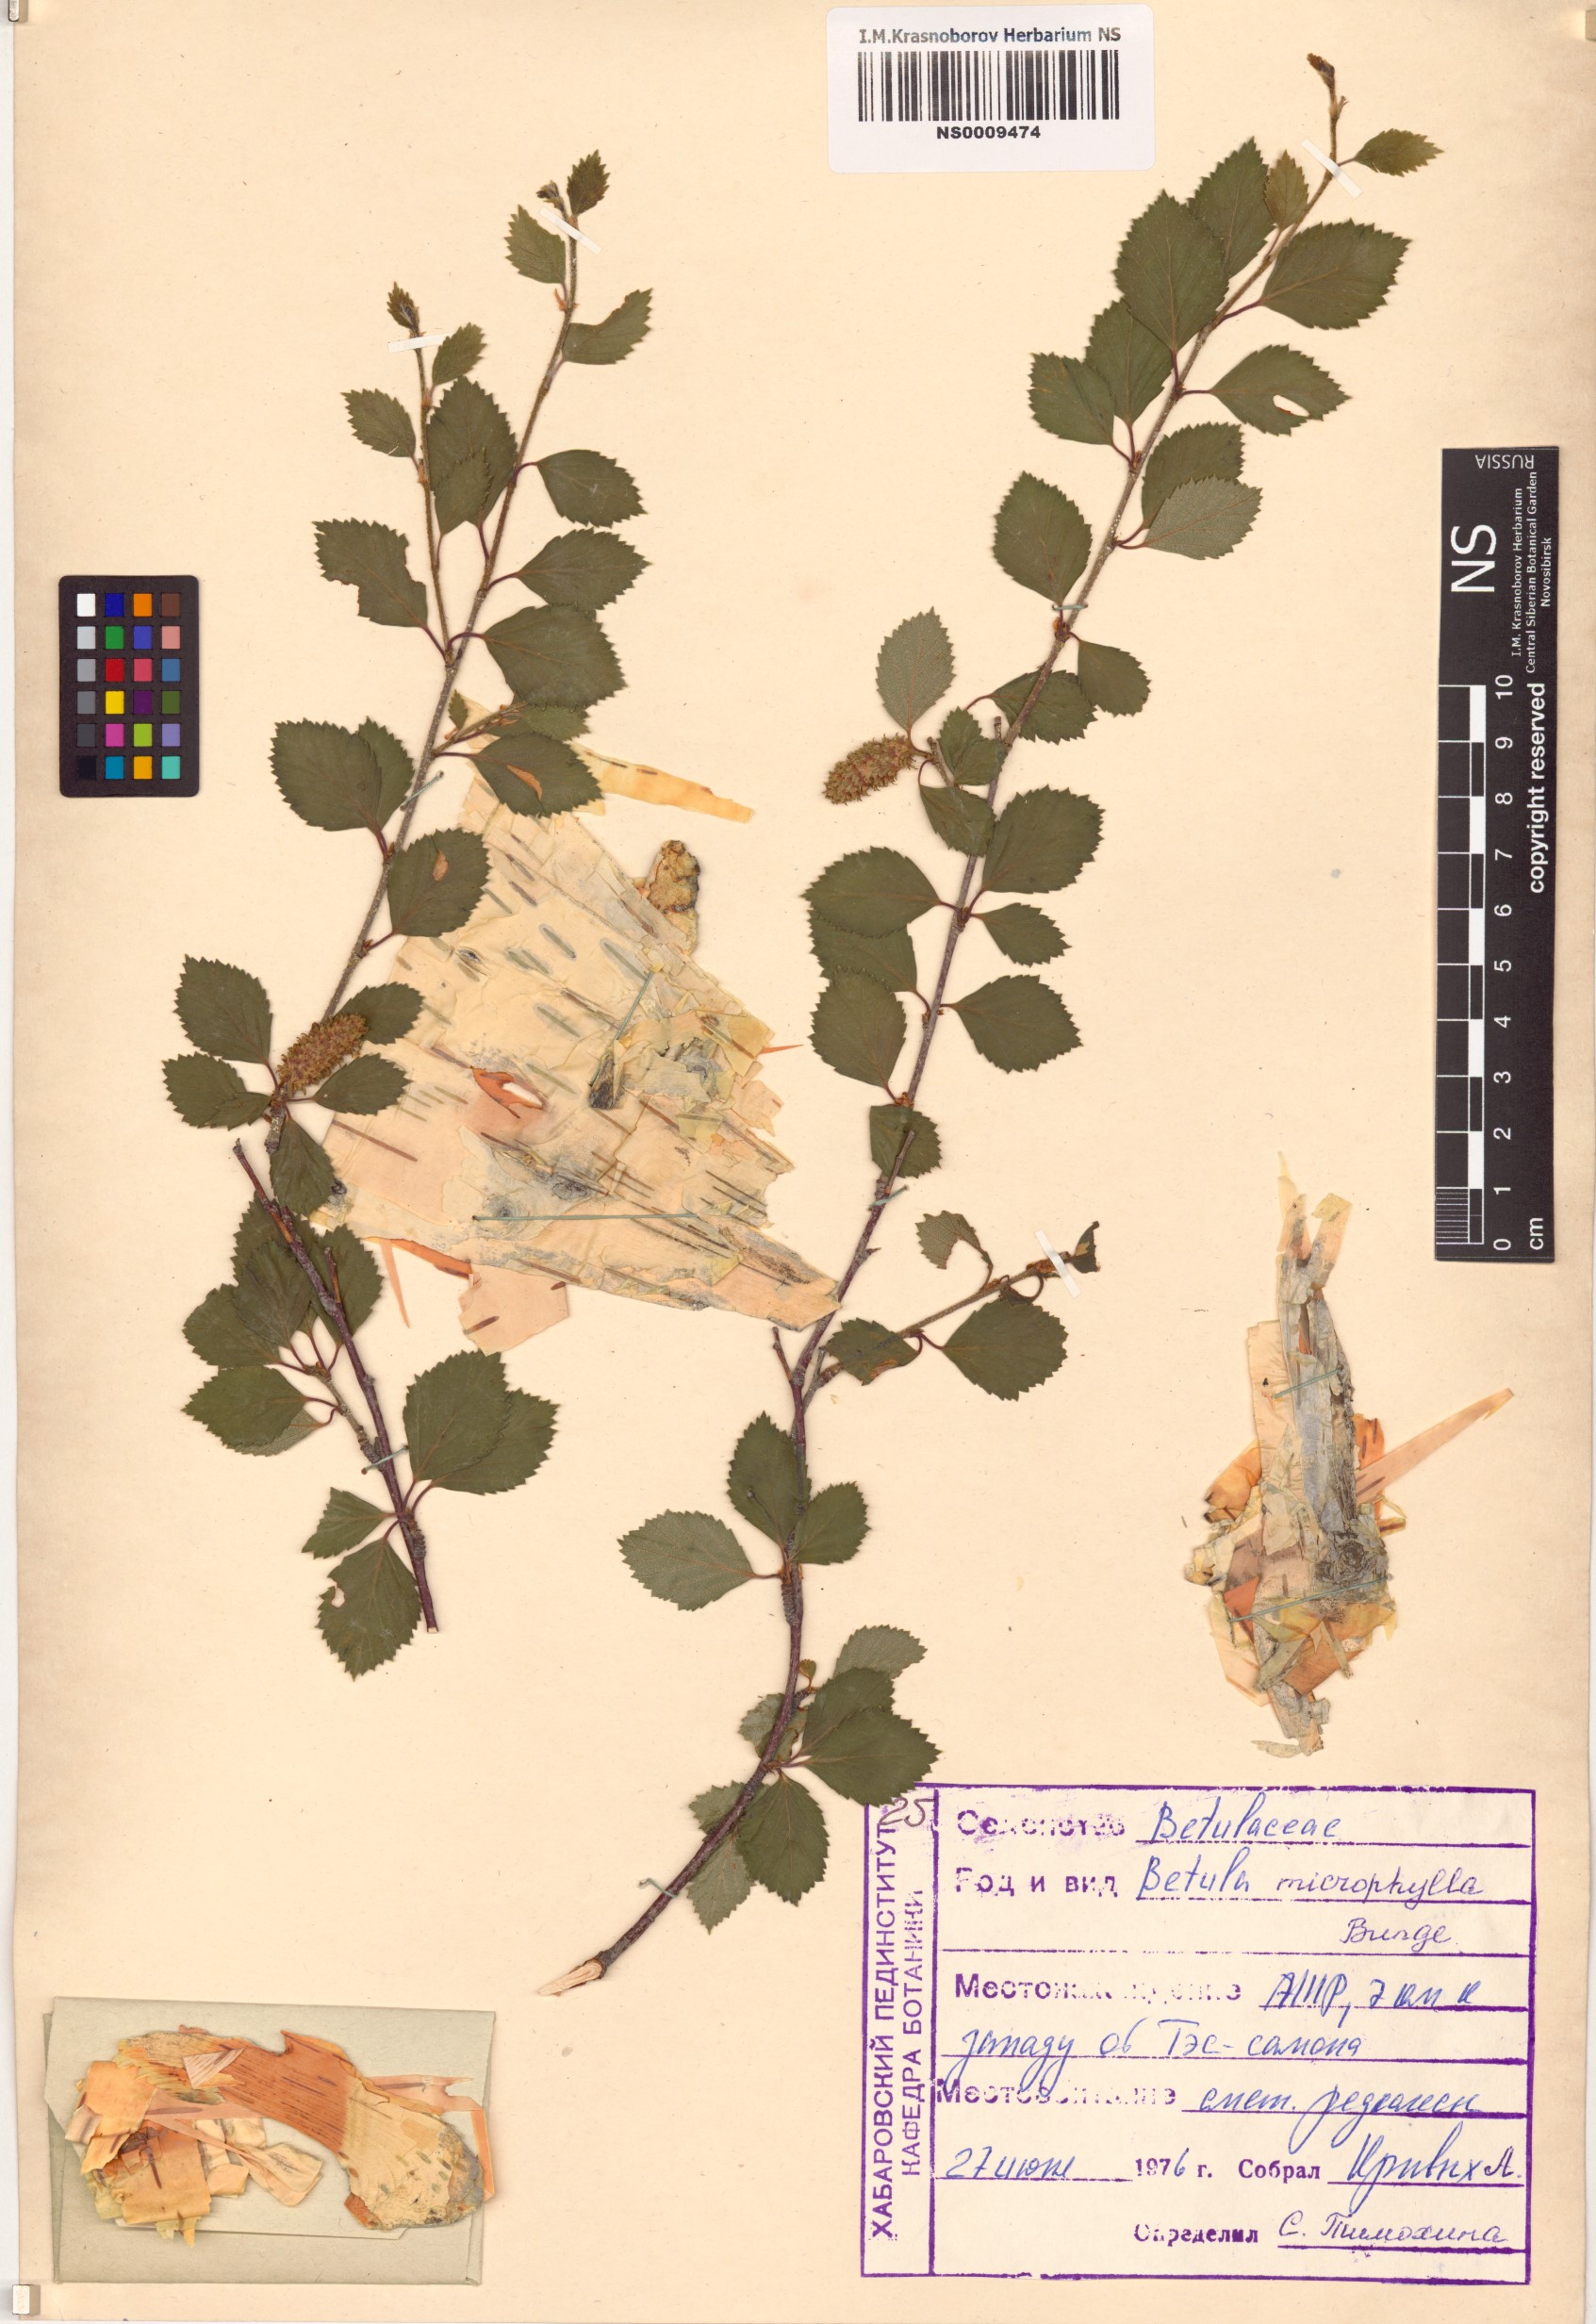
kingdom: Plantae
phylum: Tracheophyta
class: Magnoliopsida
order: Fagales
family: Betulaceae
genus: Betula
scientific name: Betula microphylla
